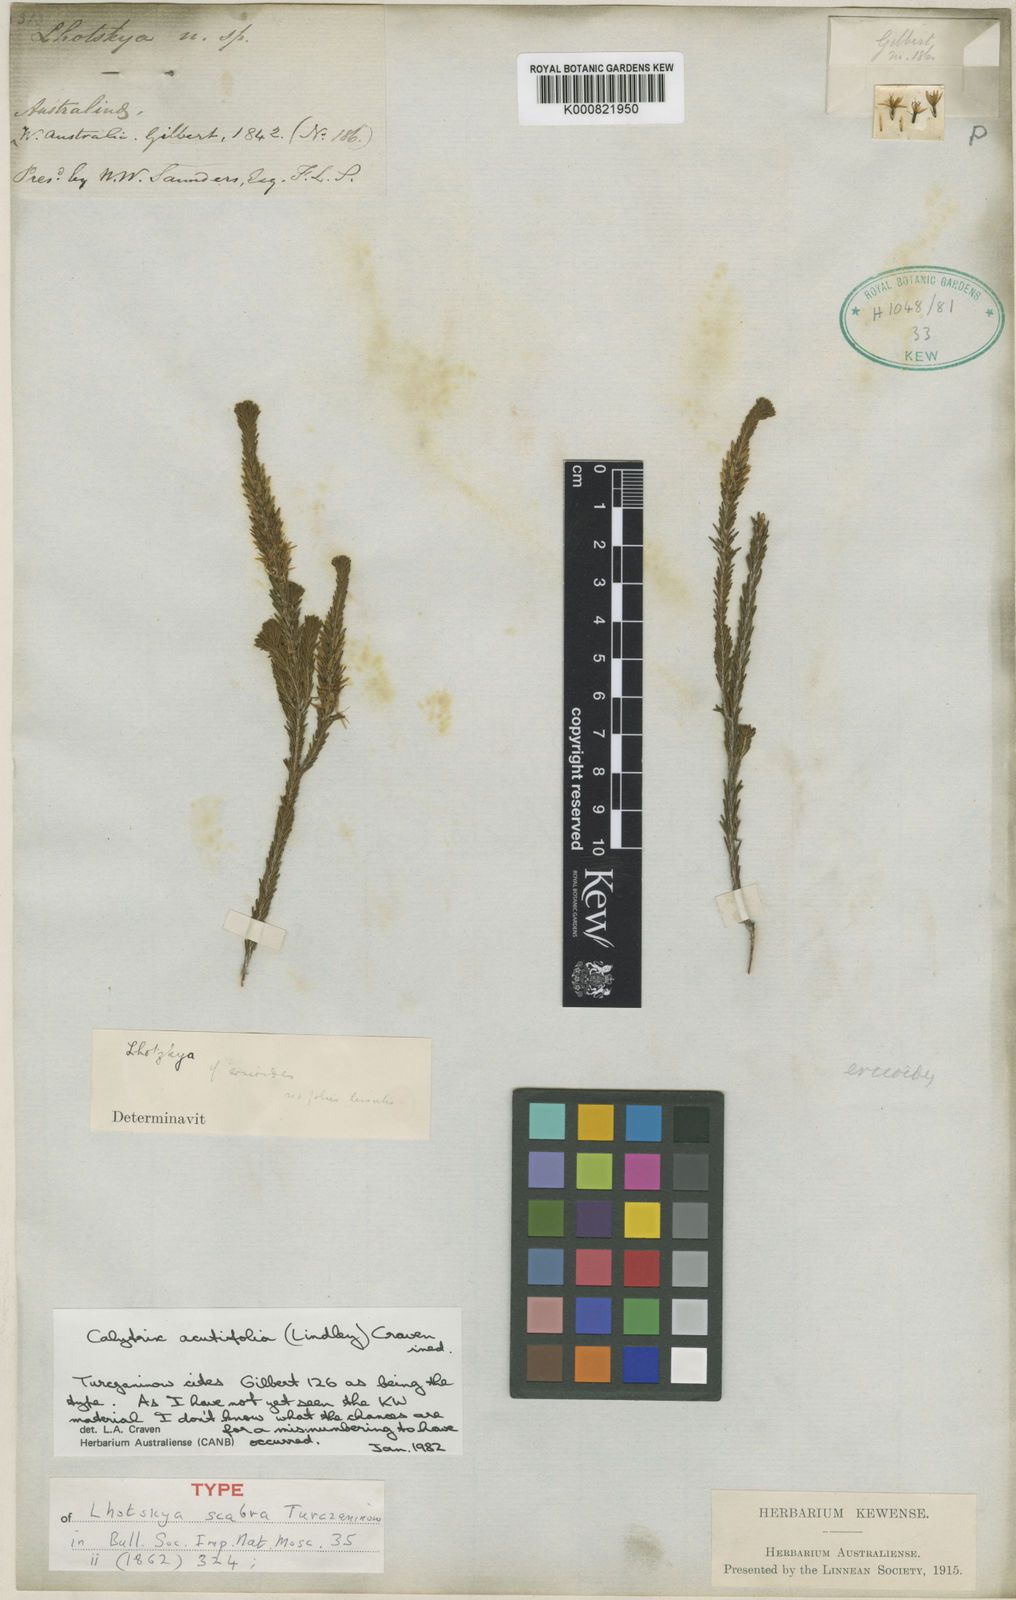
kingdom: Plantae
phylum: Tracheophyta
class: Magnoliopsida
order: Myrtales
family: Myrtaceae
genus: Calytrix
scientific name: Calytrix acutifolia
